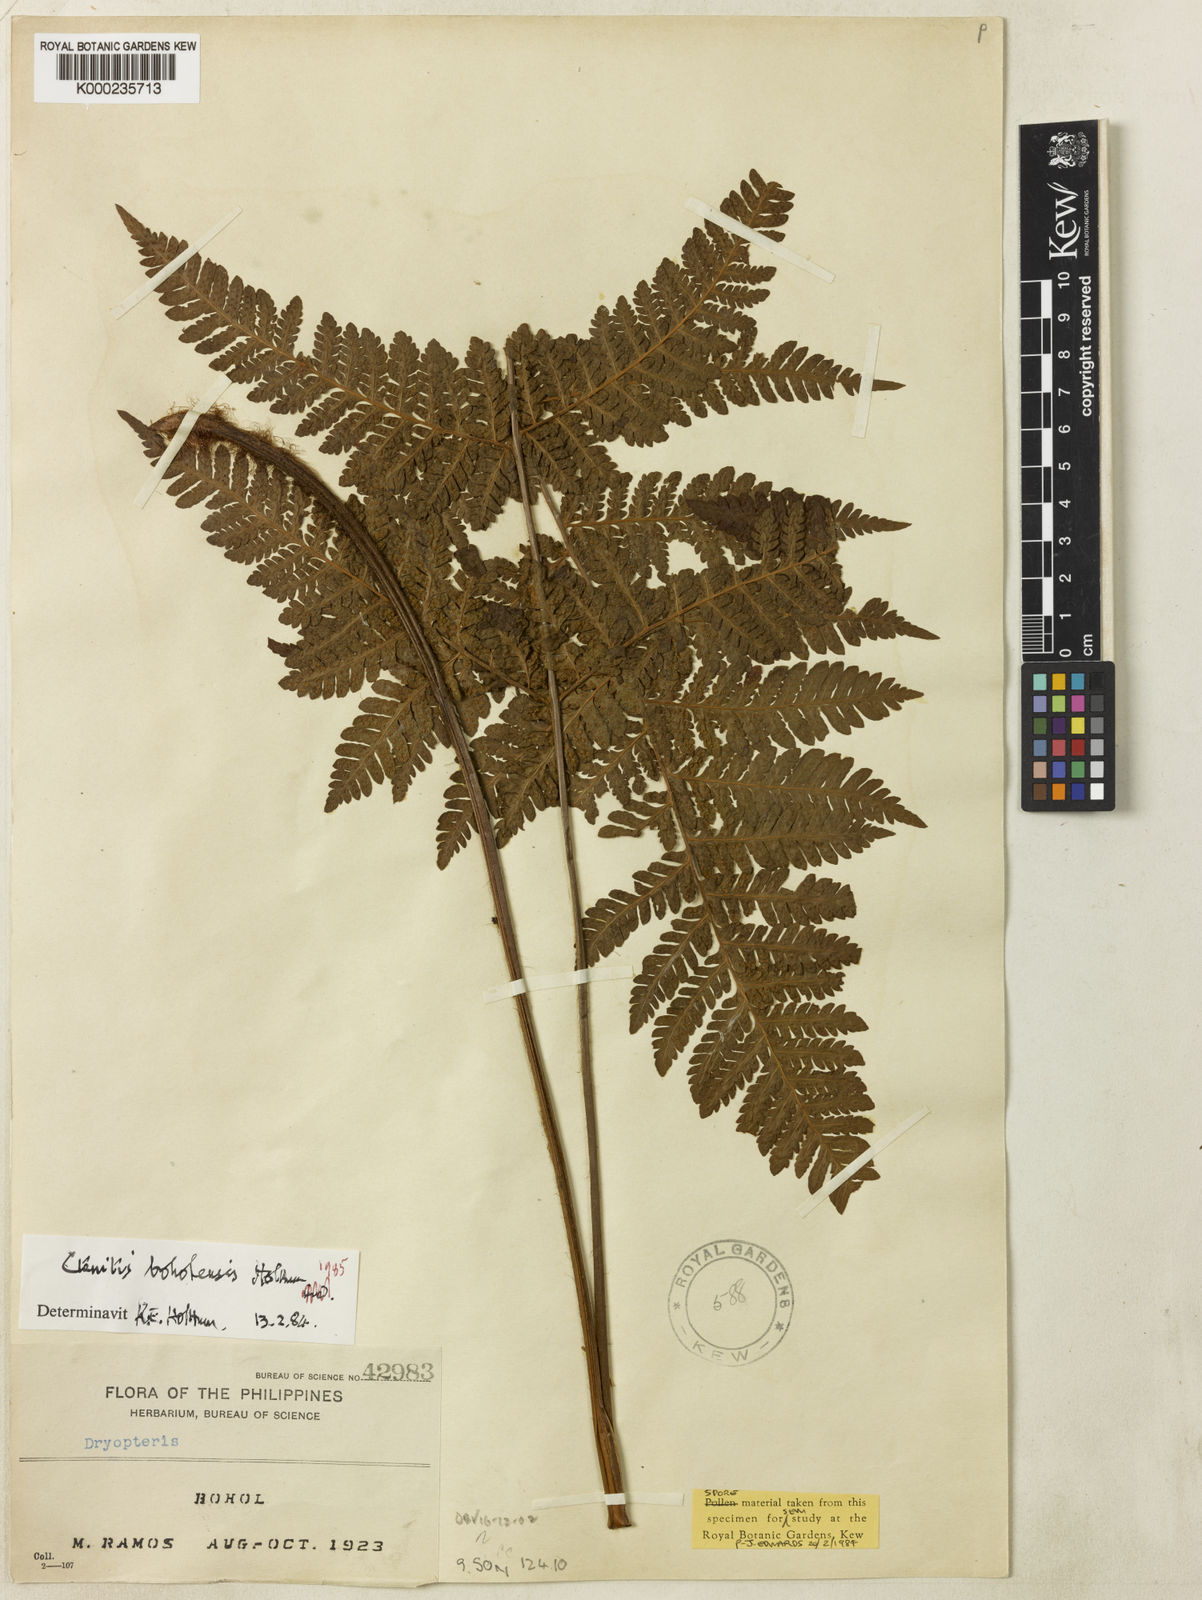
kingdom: Plantae
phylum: Tracheophyta
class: Polypodiopsida
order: Polypodiales
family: Dryopteridaceae
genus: Ctenitis
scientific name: Ctenitis boholensis
